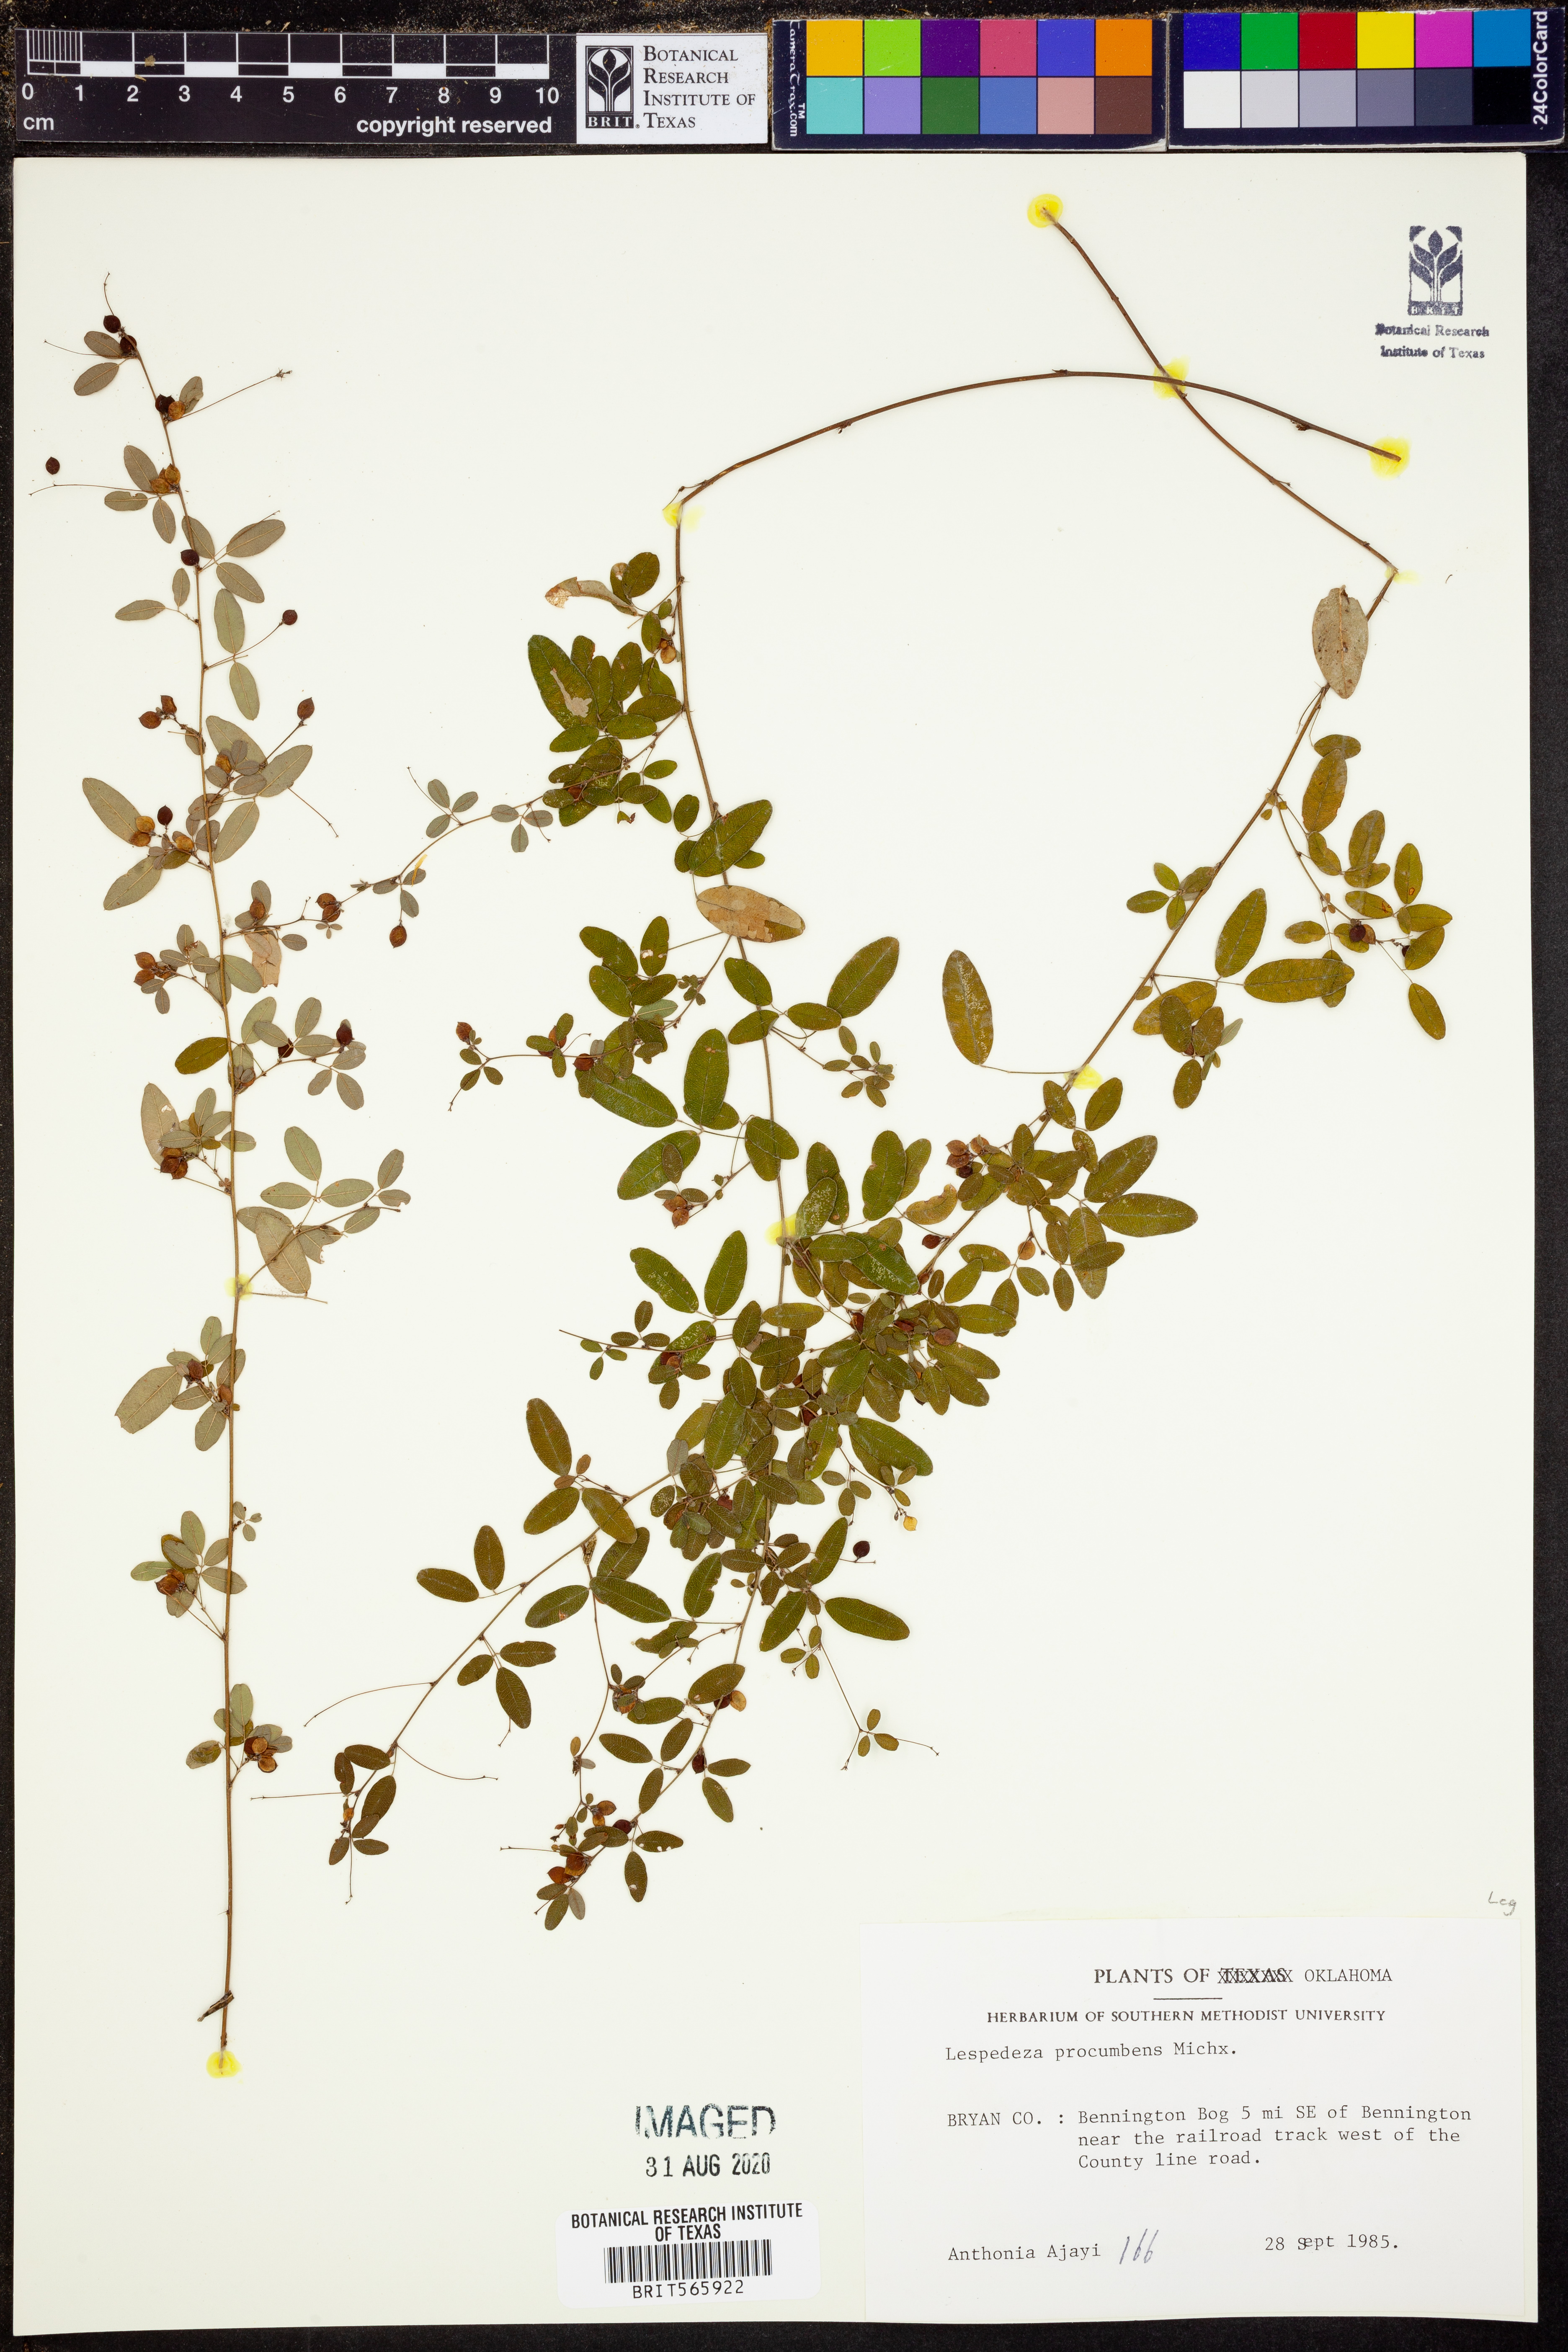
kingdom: Plantae
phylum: Tracheophyta
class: Magnoliopsida
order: Fabales
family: Fabaceae
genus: Lespedeza
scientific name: Lespedeza procumbens
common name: Downy trailing bush-clover
